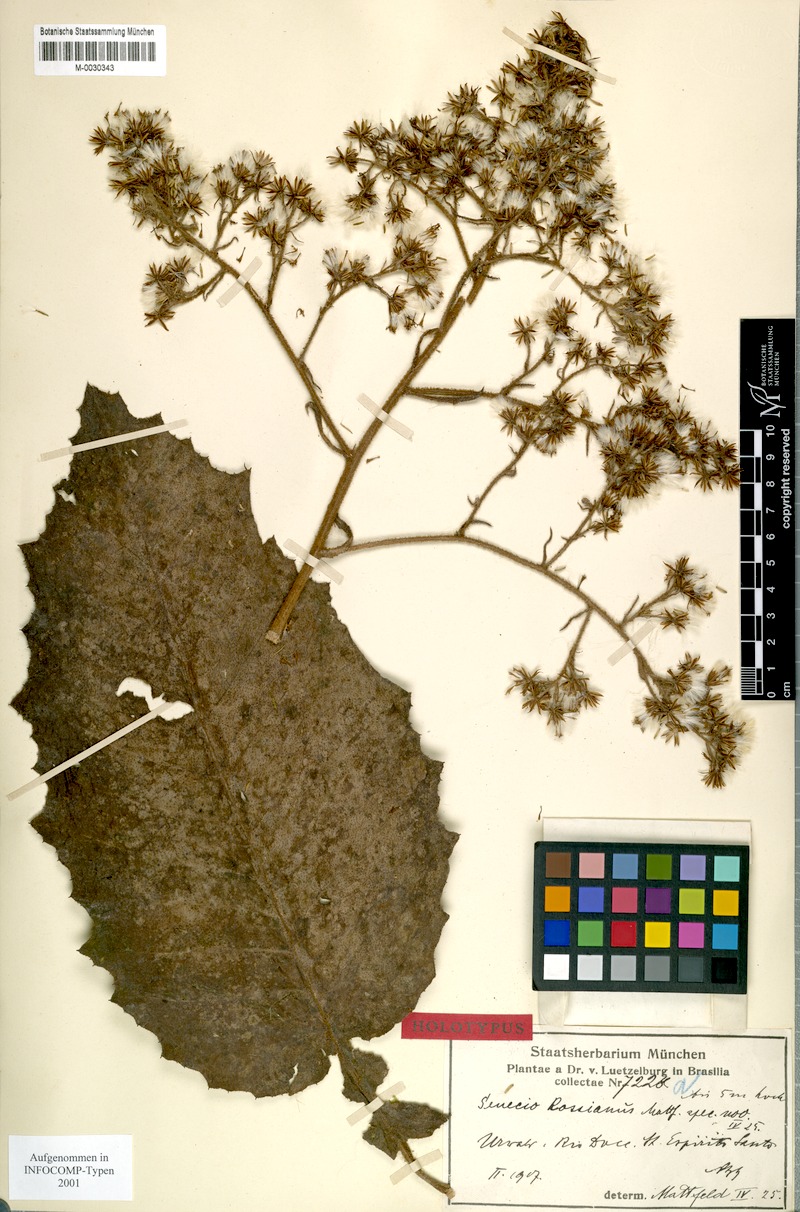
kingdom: Plantae
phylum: Tracheophyta
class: Magnoliopsida
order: Asterales
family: Asteraceae
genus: Senecio
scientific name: Senecio rossianus
